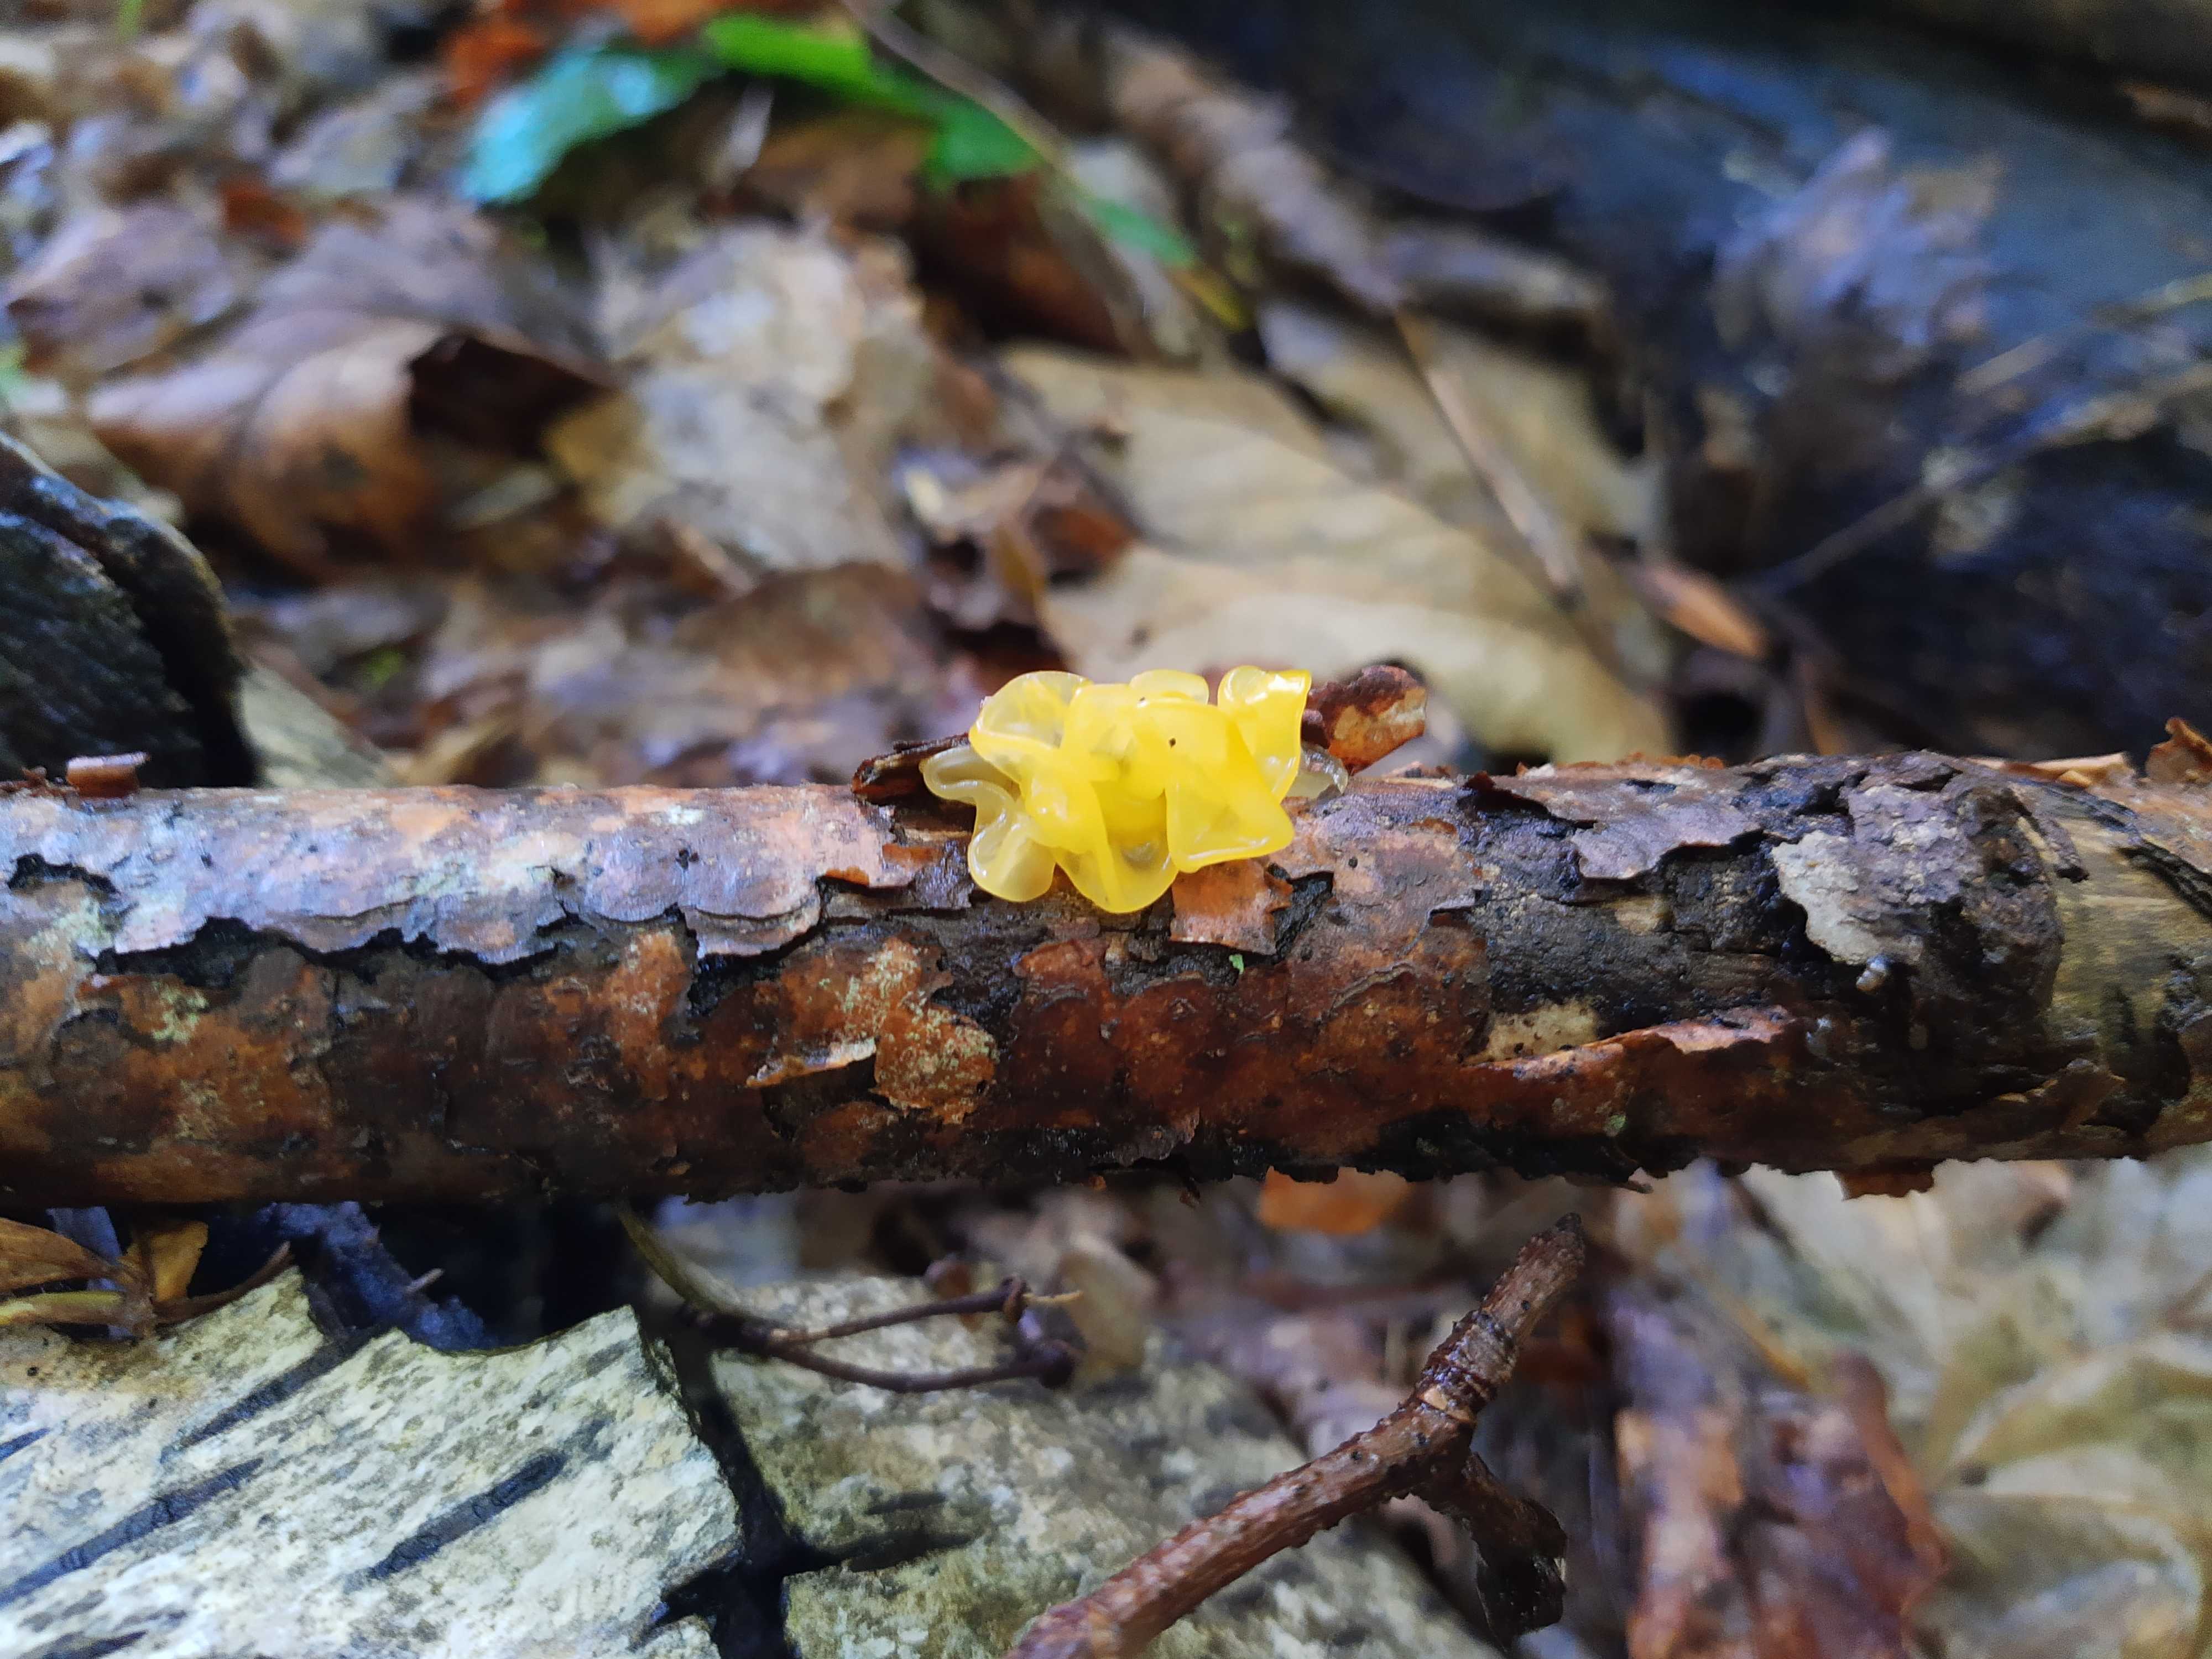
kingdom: Fungi
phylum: Basidiomycota
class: Tremellomycetes
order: Tremellales
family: Tremellaceae
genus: Tremella
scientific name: Tremella mesenterica
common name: gul bævresvamp
